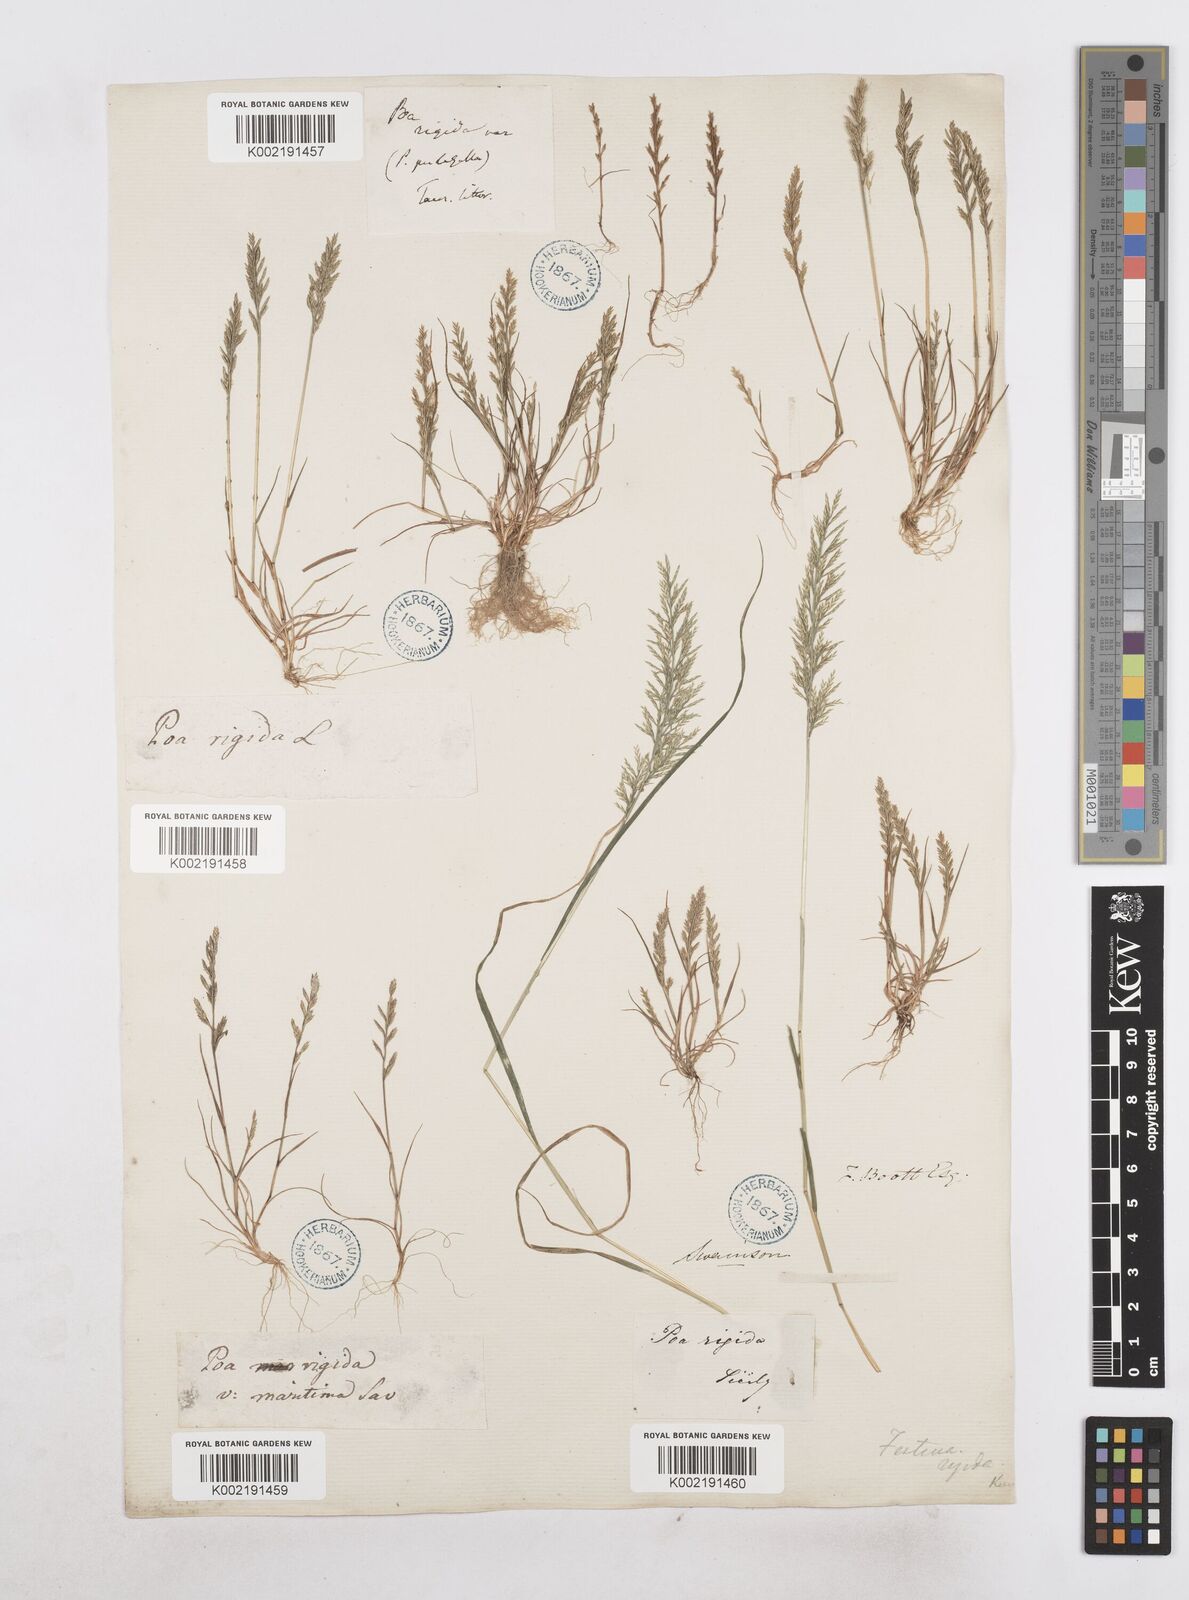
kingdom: Plantae
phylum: Tracheophyta
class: Liliopsida
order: Poales
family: Poaceae
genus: Catapodium
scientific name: Catapodium rigidum
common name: Fern-grass
